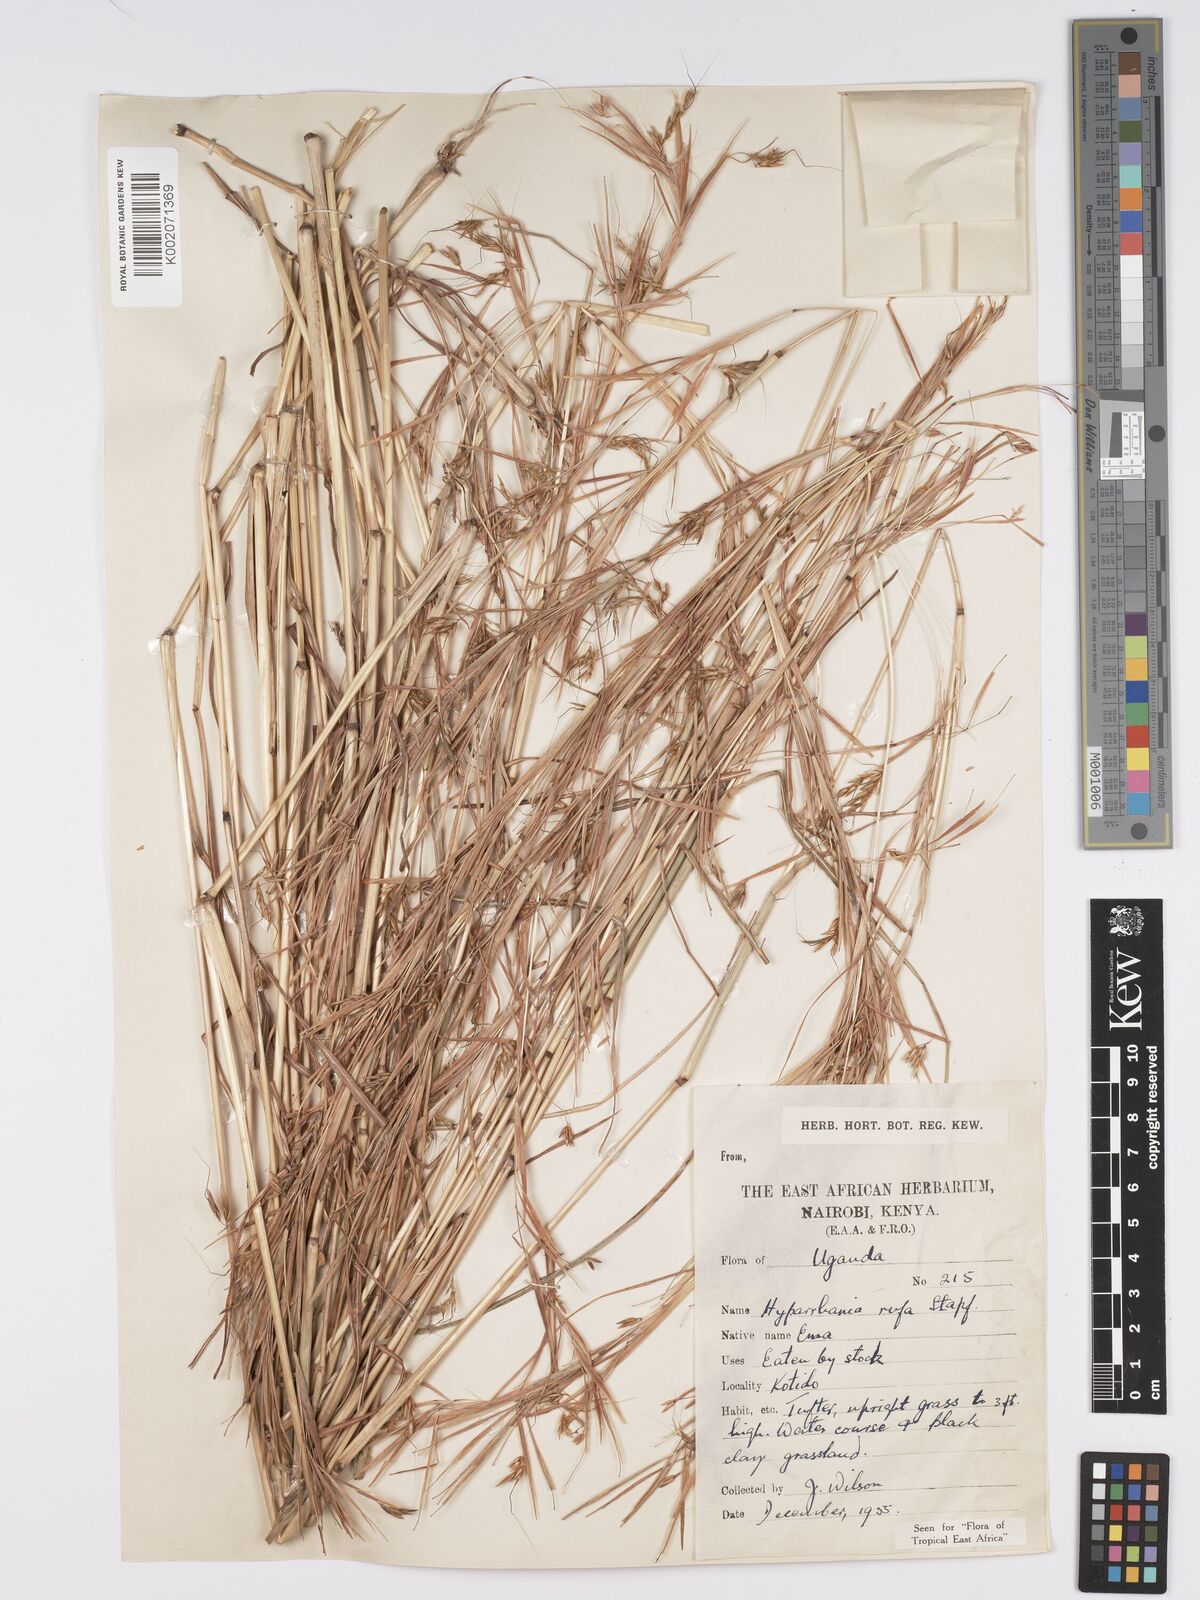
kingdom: Plantae
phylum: Tracheophyta
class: Liliopsida
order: Poales
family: Poaceae
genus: Hyparrhenia
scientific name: Hyparrhenia rufa
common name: Jaraguagrass
